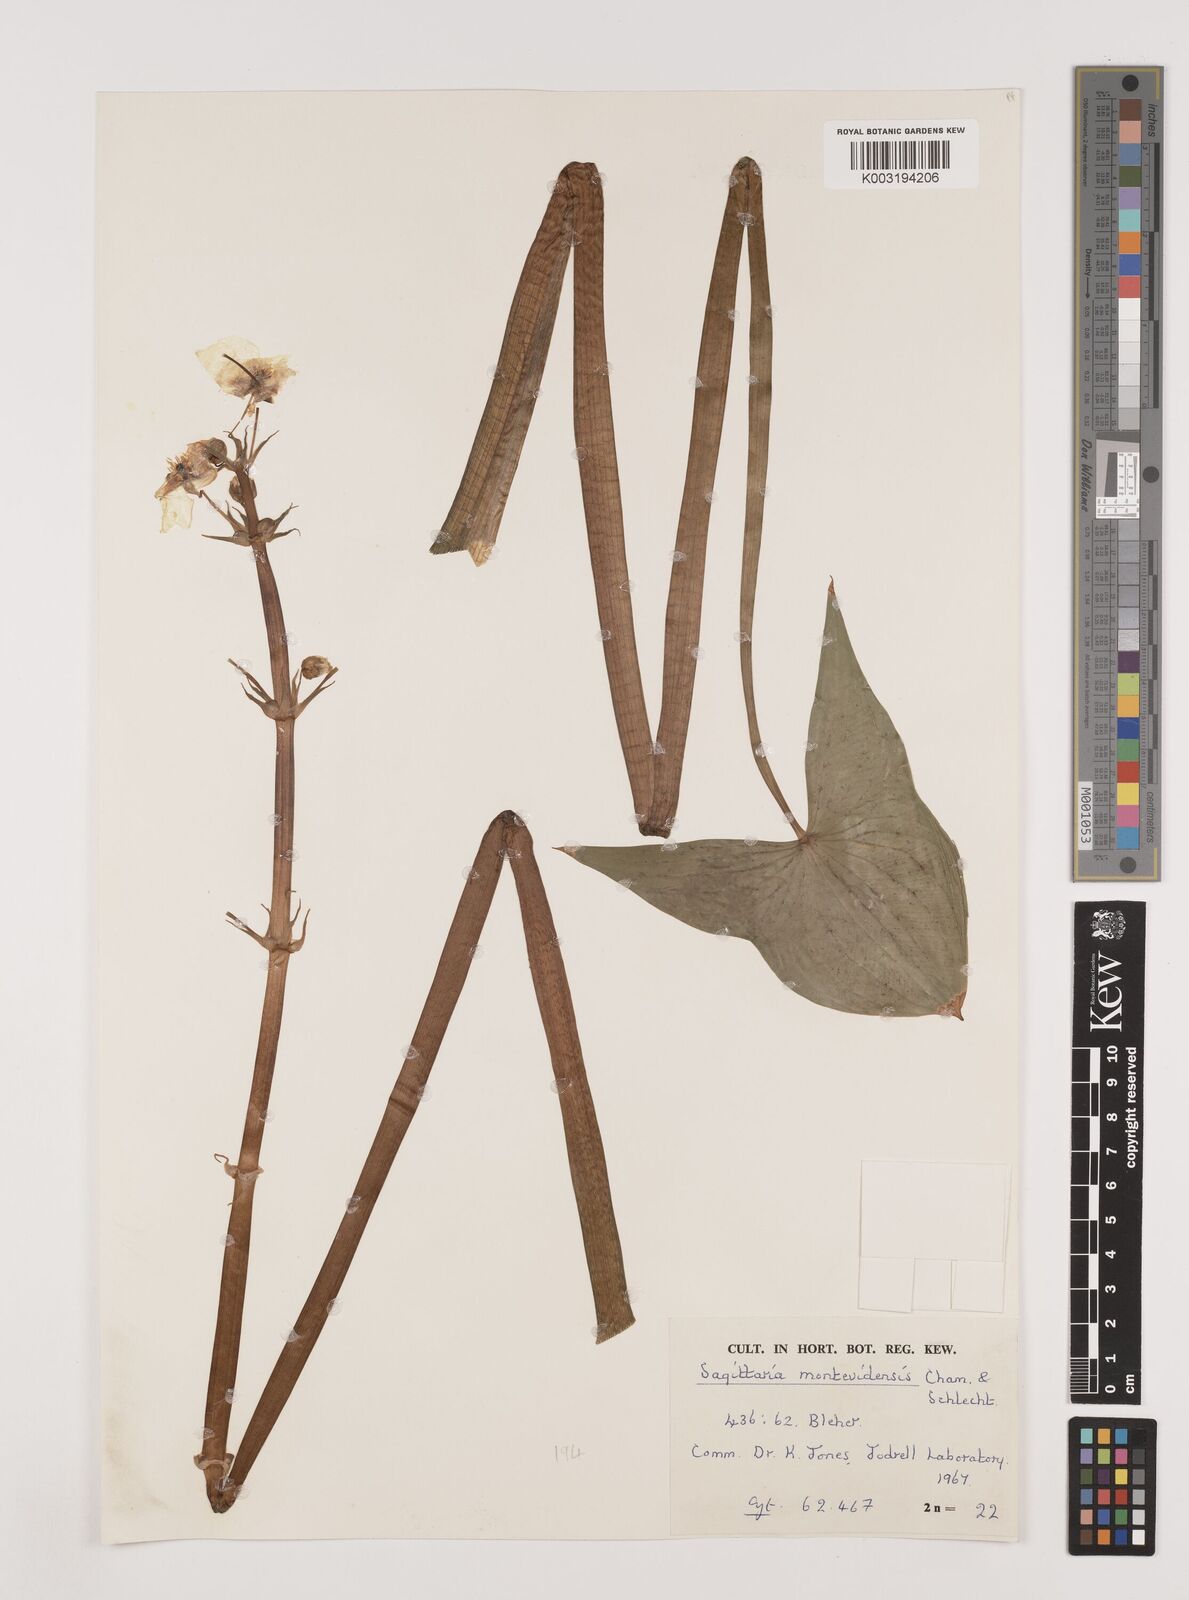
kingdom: Plantae
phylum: Tracheophyta
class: Liliopsida
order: Alismatales
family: Alismataceae
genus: Sagittaria
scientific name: Sagittaria montevidensis
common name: Giant arrowhead
